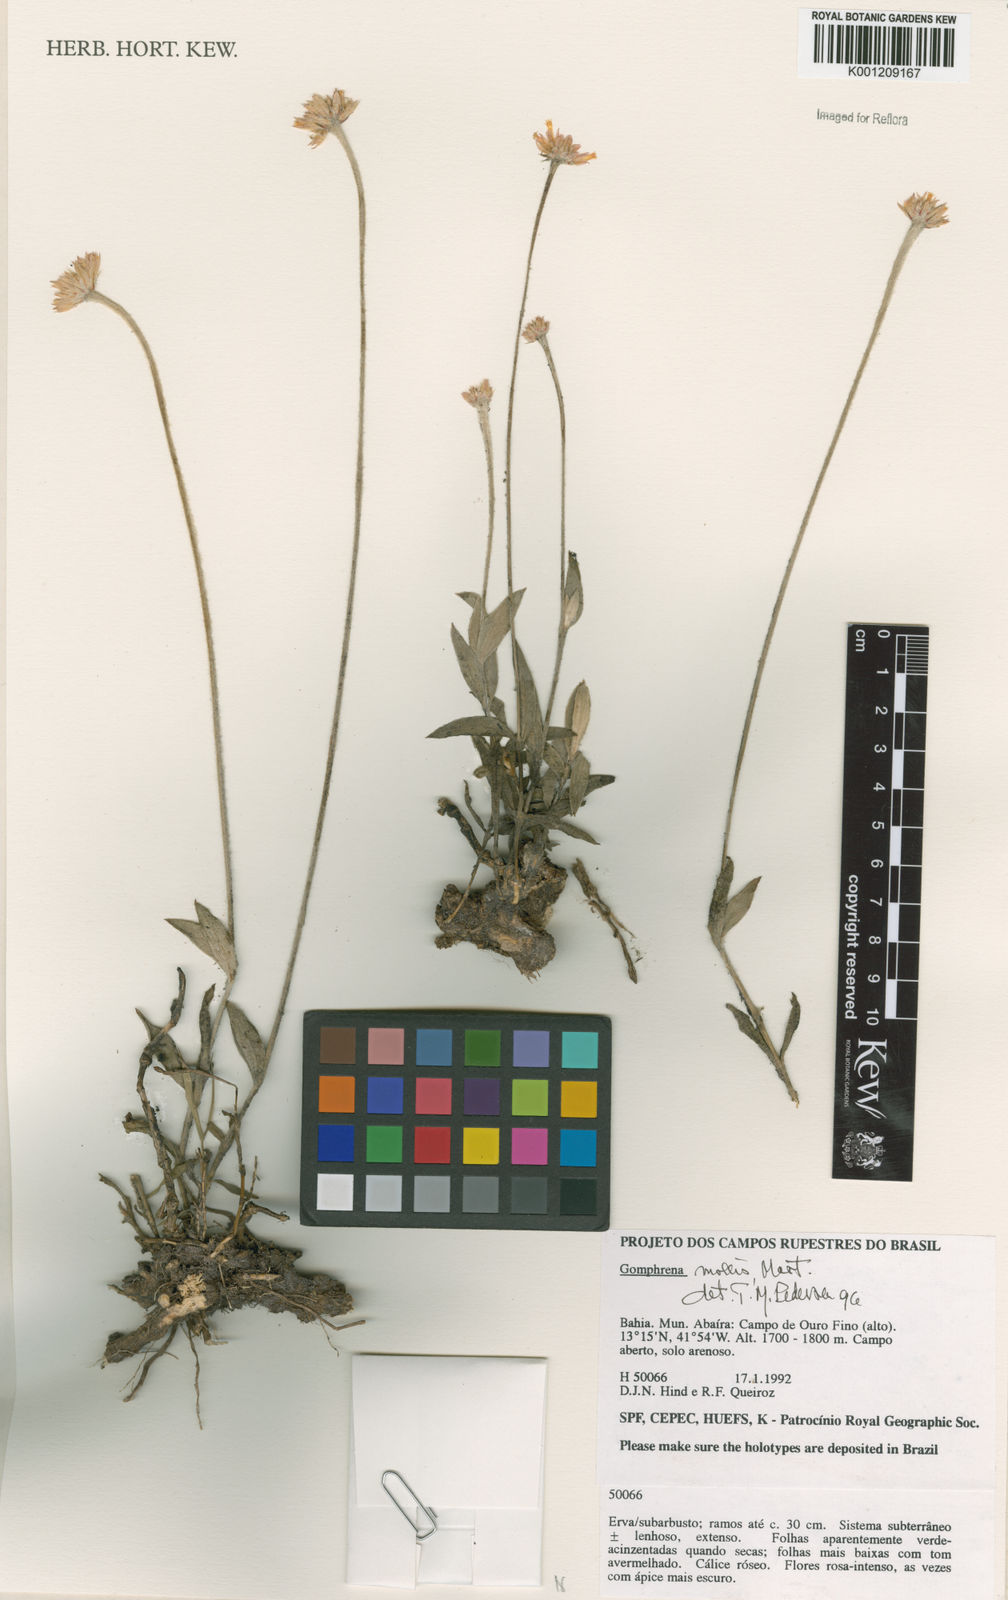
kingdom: Plantae
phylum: Tracheophyta
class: Magnoliopsida
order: Caryophyllales
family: Amaranthaceae
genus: Gomphrena
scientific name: Gomphrena mollis
